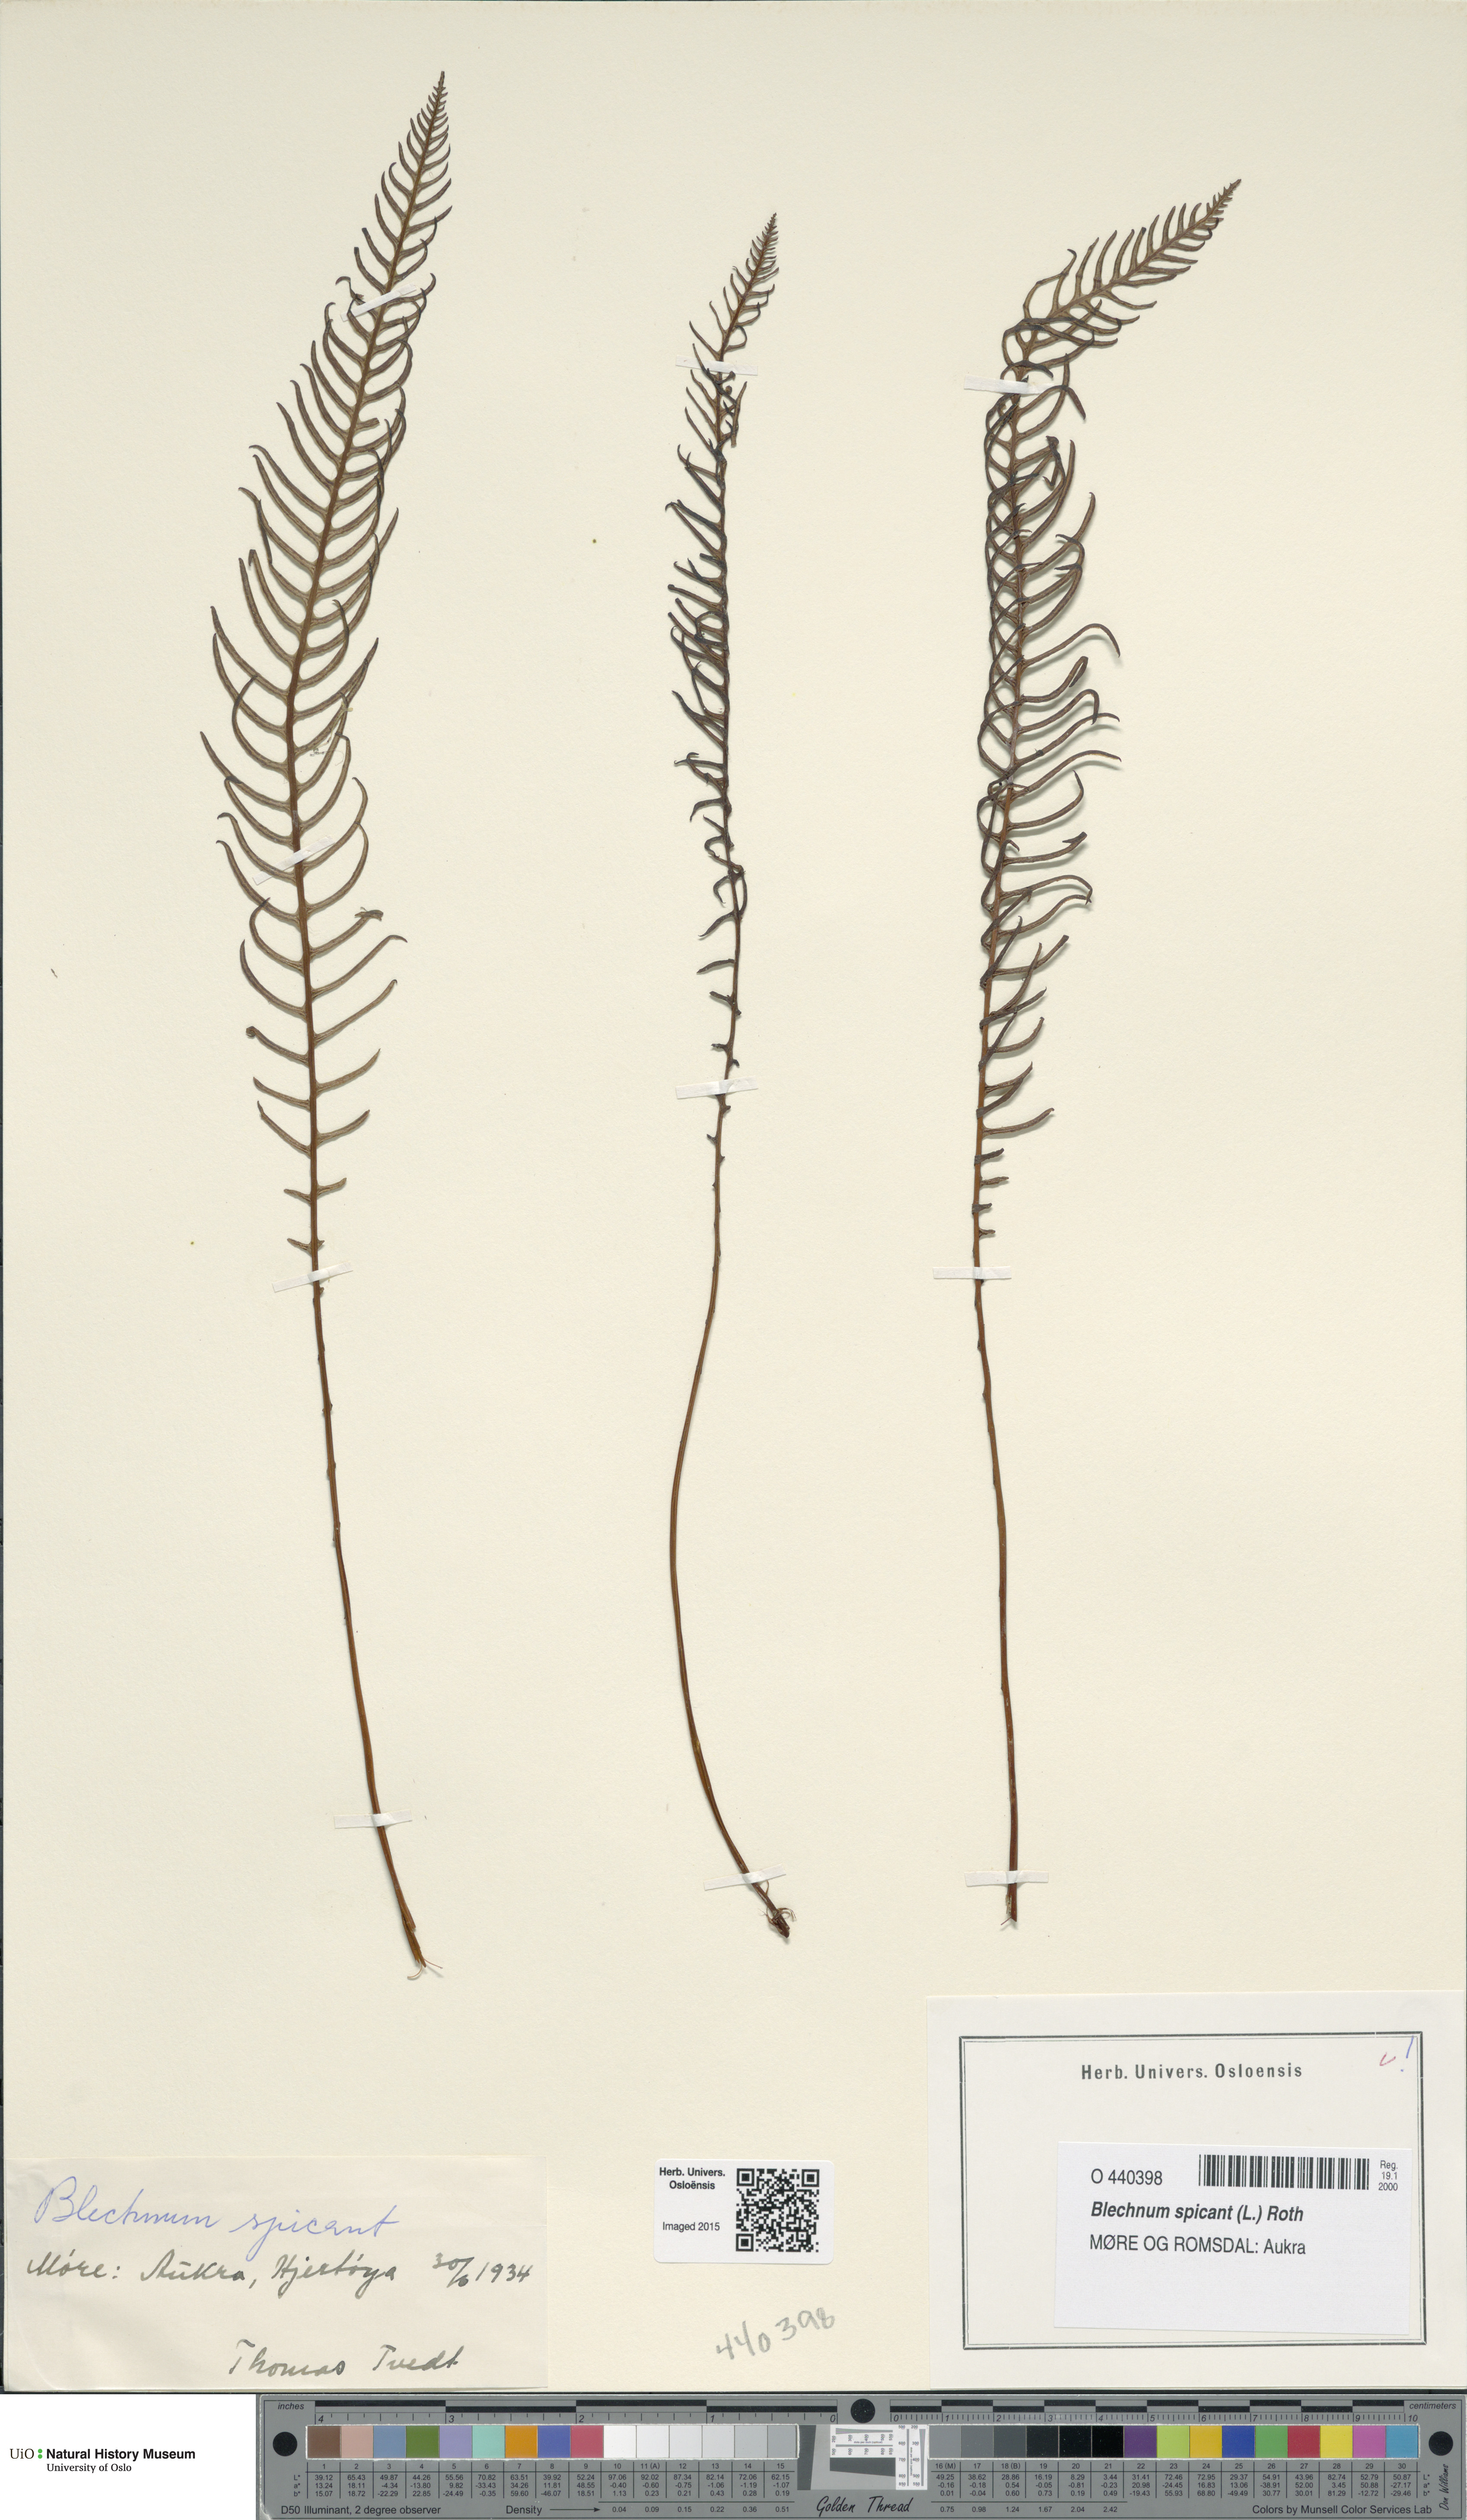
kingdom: Plantae
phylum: Tracheophyta
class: Polypodiopsida
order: Polypodiales
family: Blechnaceae
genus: Struthiopteris
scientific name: Struthiopteris spicant
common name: Deer fern
